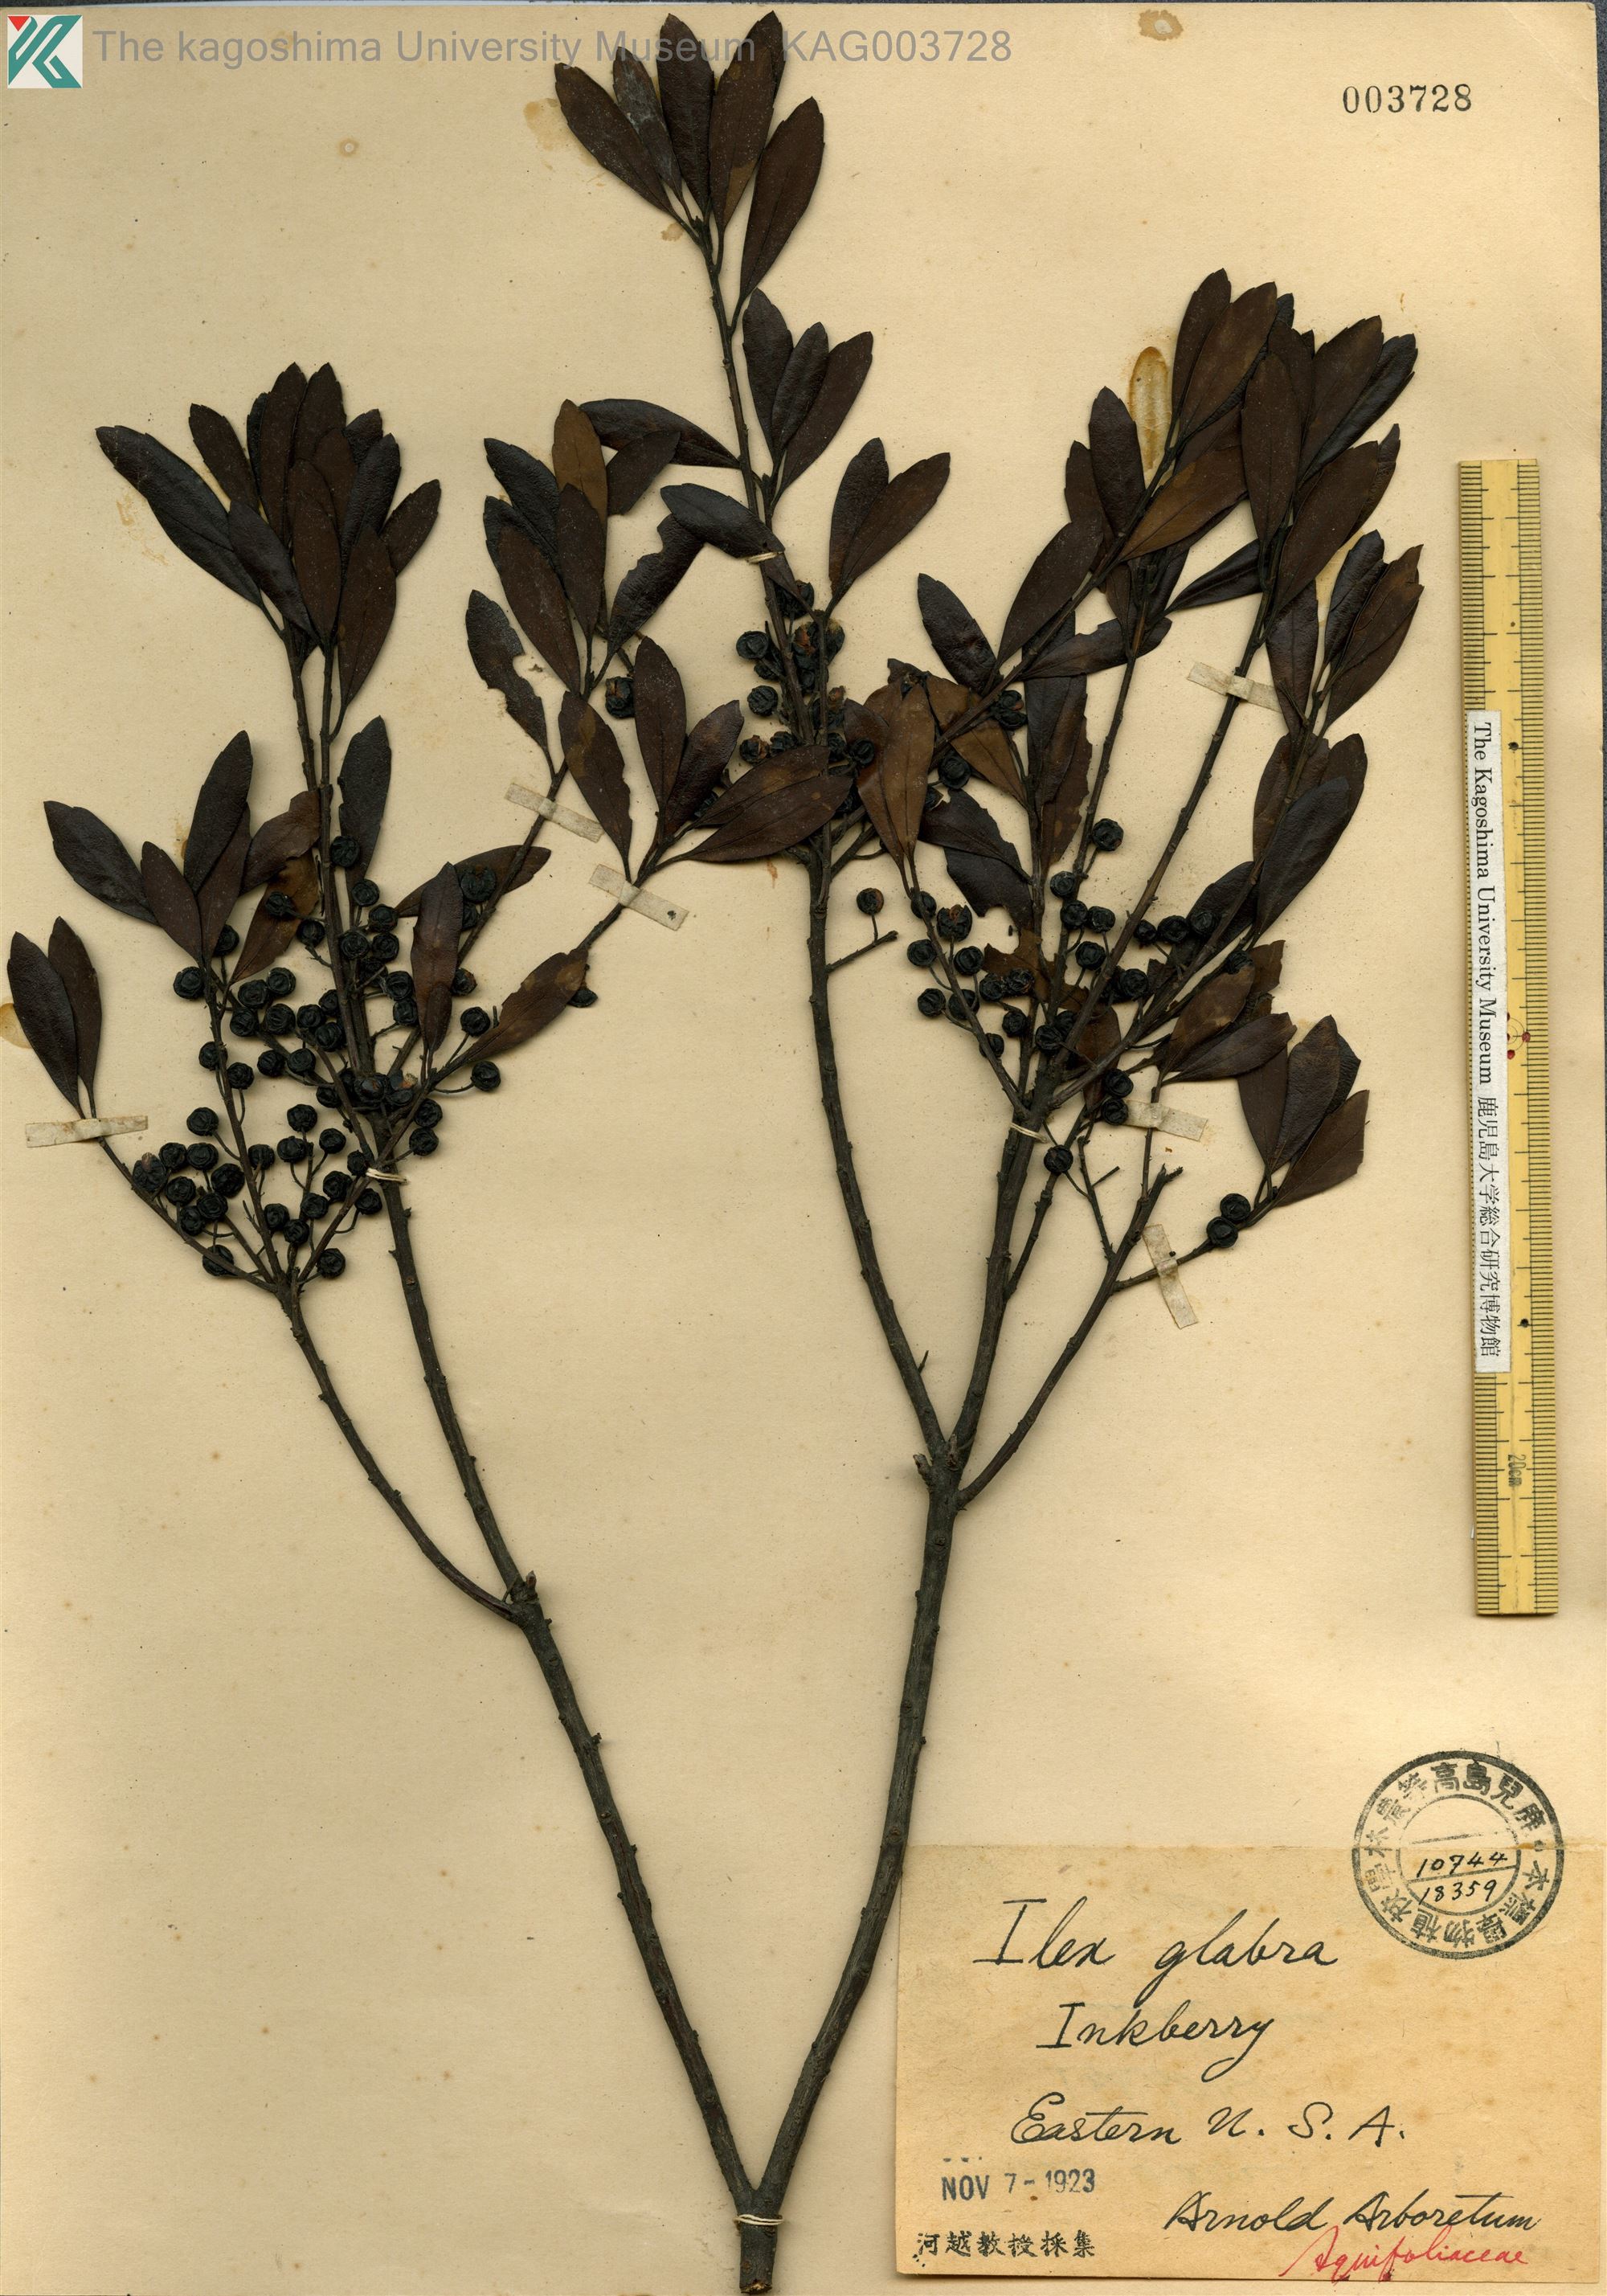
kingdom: Plantae
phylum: Tracheophyta
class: Magnoliopsida
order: Aquifoliales
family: Aquifoliaceae
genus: Ilex
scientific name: Ilex glabra
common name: Bitter gallberry
